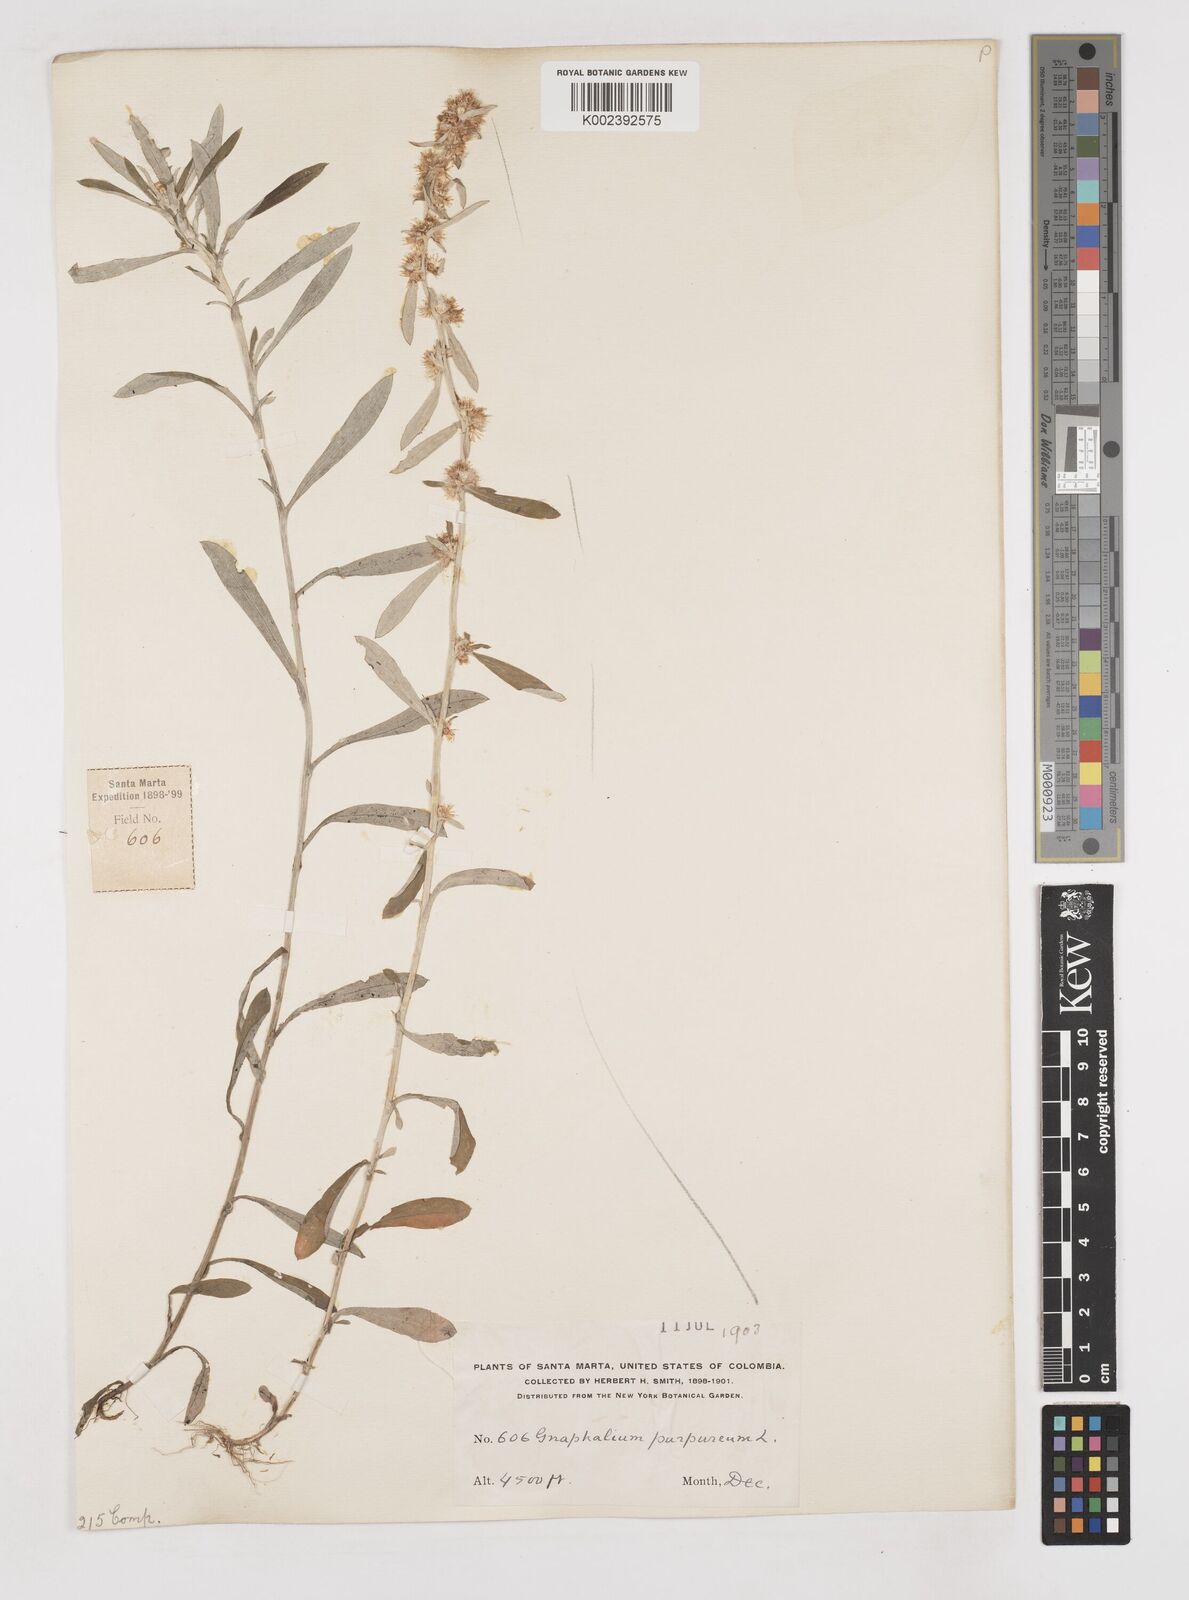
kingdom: Plantae
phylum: Tracheophyta
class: Magnoliopsida
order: Asterales
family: Asteraceae
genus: Pseudognaphalium
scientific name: Pseudognaphalium purpurascens
